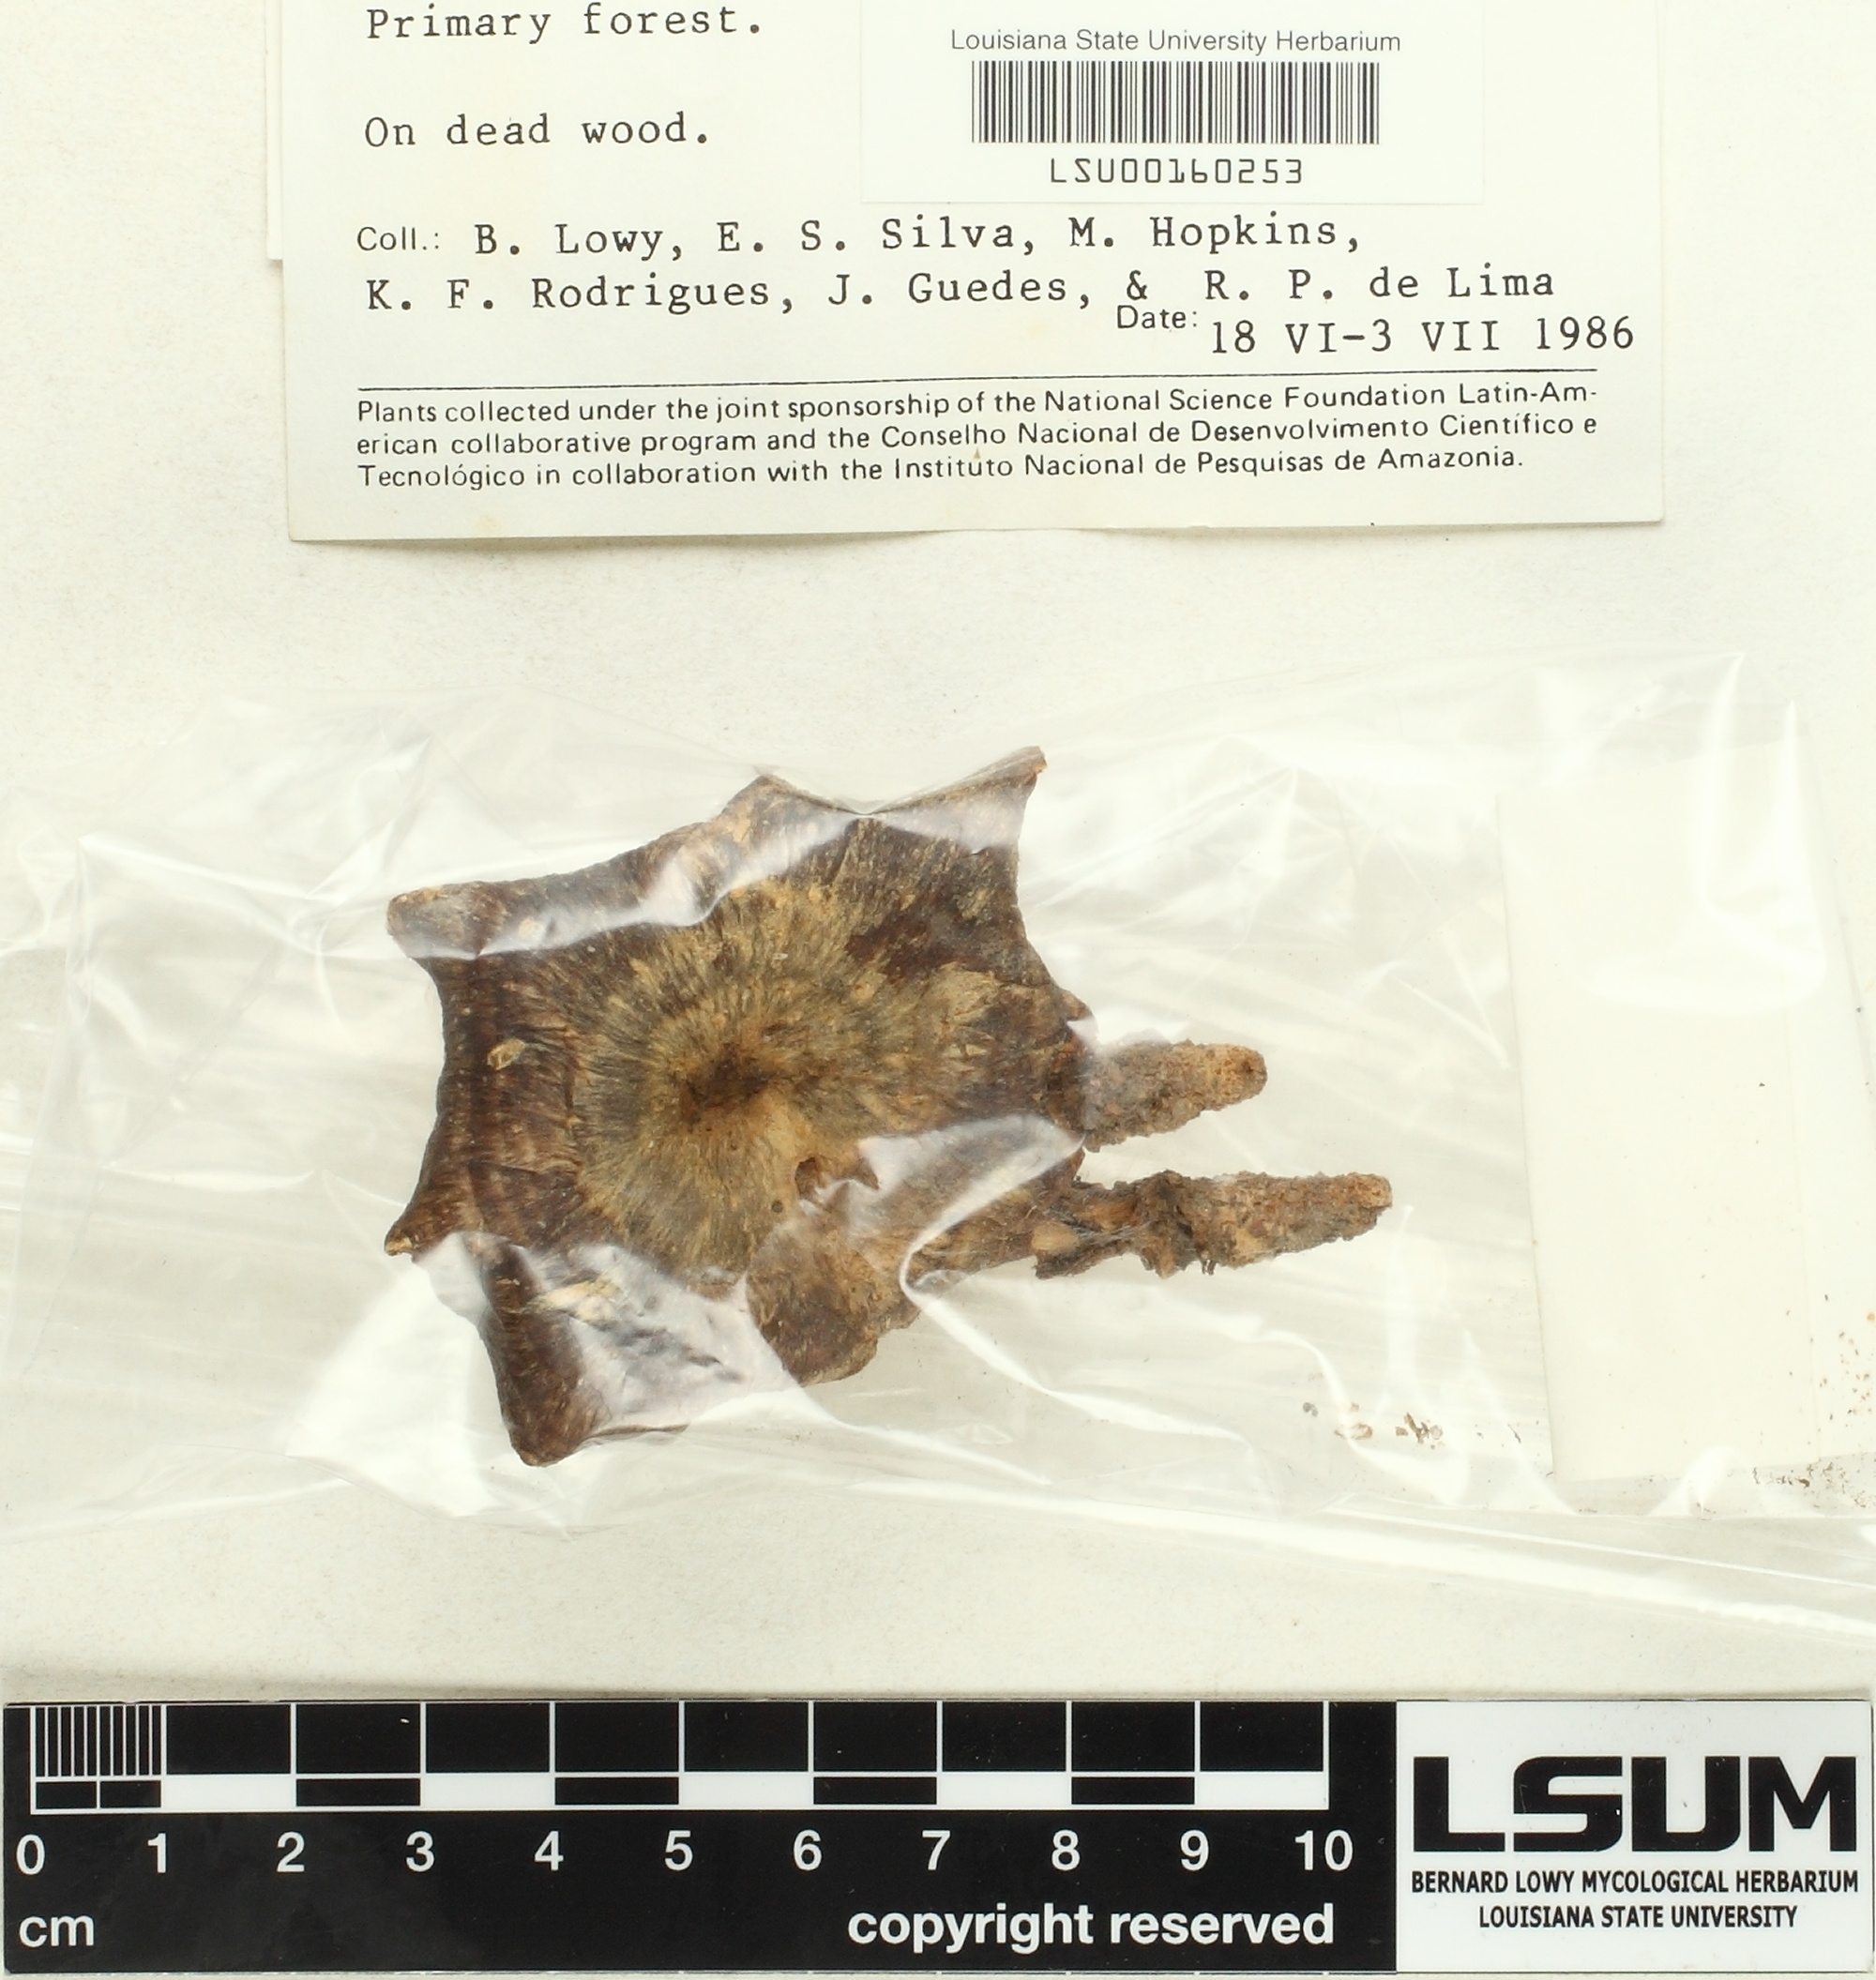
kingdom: Fungi
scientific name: Fungi
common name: Fungi
